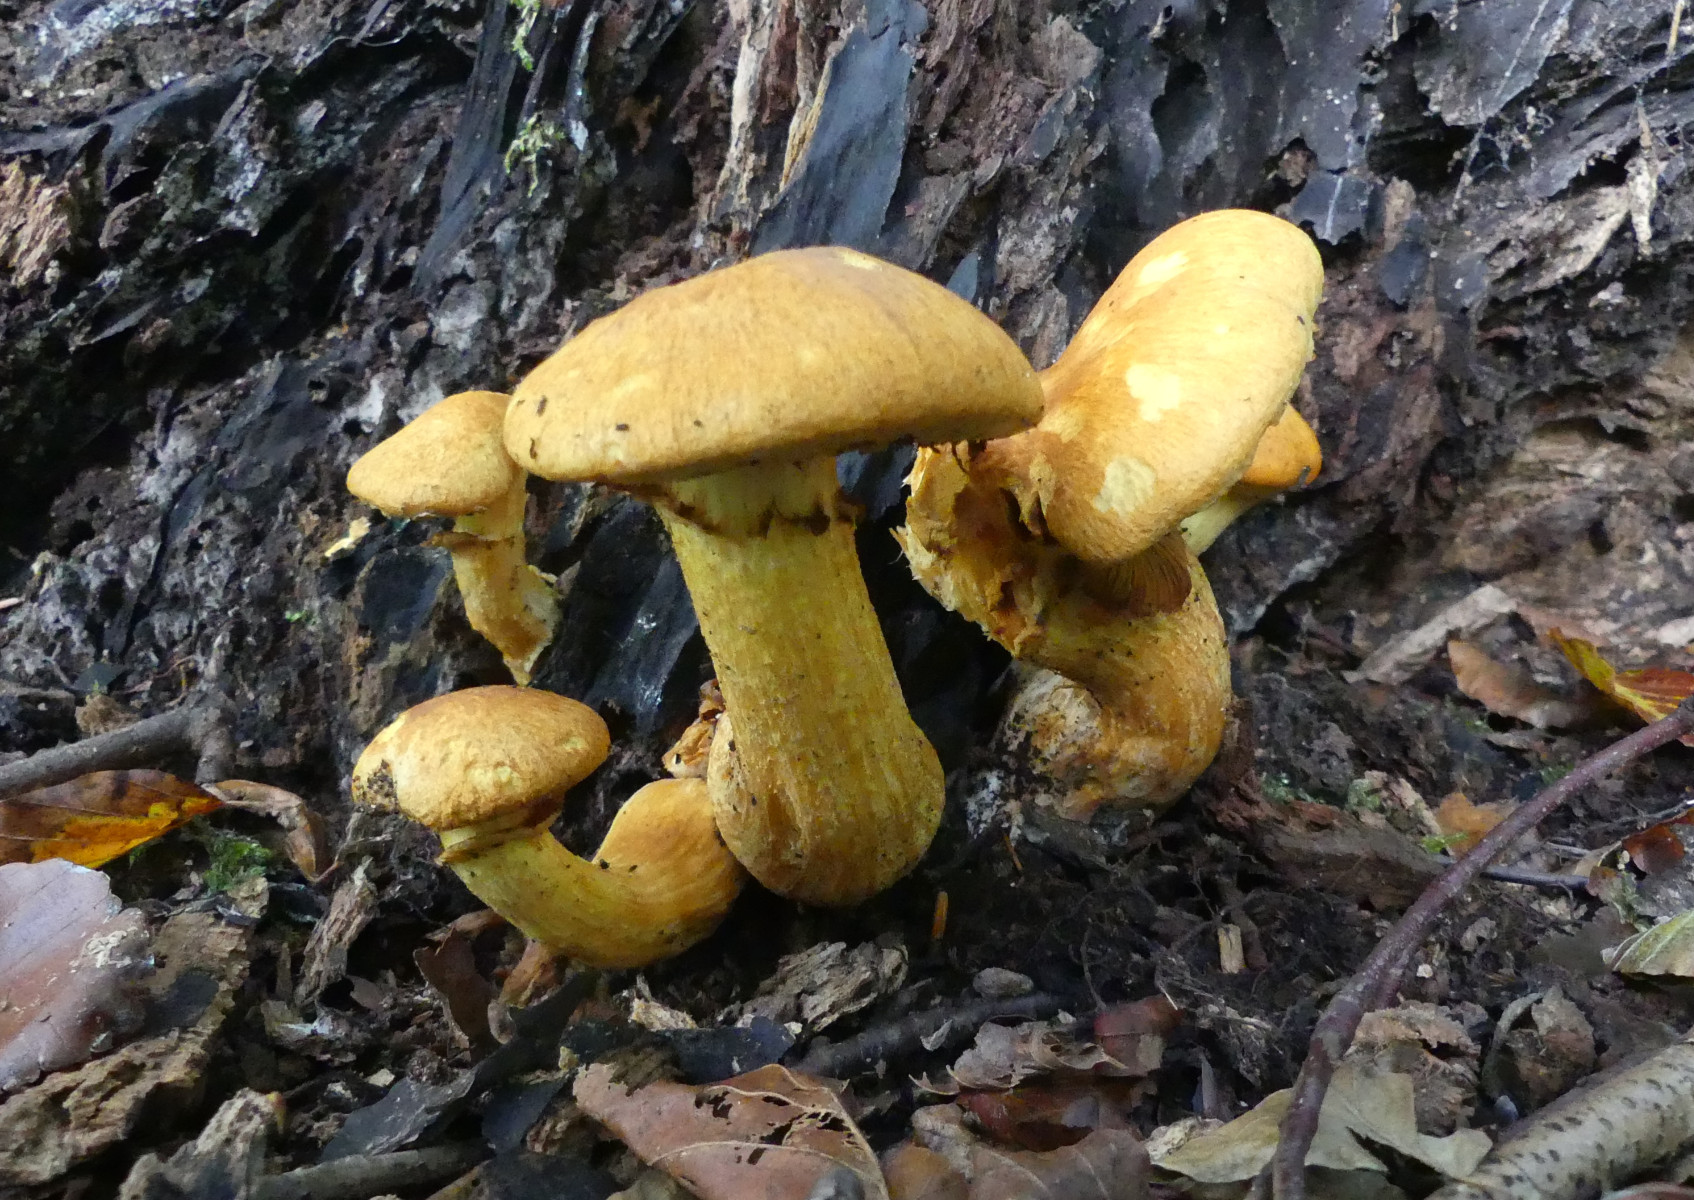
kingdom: Fungi
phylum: Basidiomycota
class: Agaricomycetes
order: Agaricales
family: Hymenogastraceae
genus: Gymnopilus
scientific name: Gymnopilus spectabilis
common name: fibret flammehat
